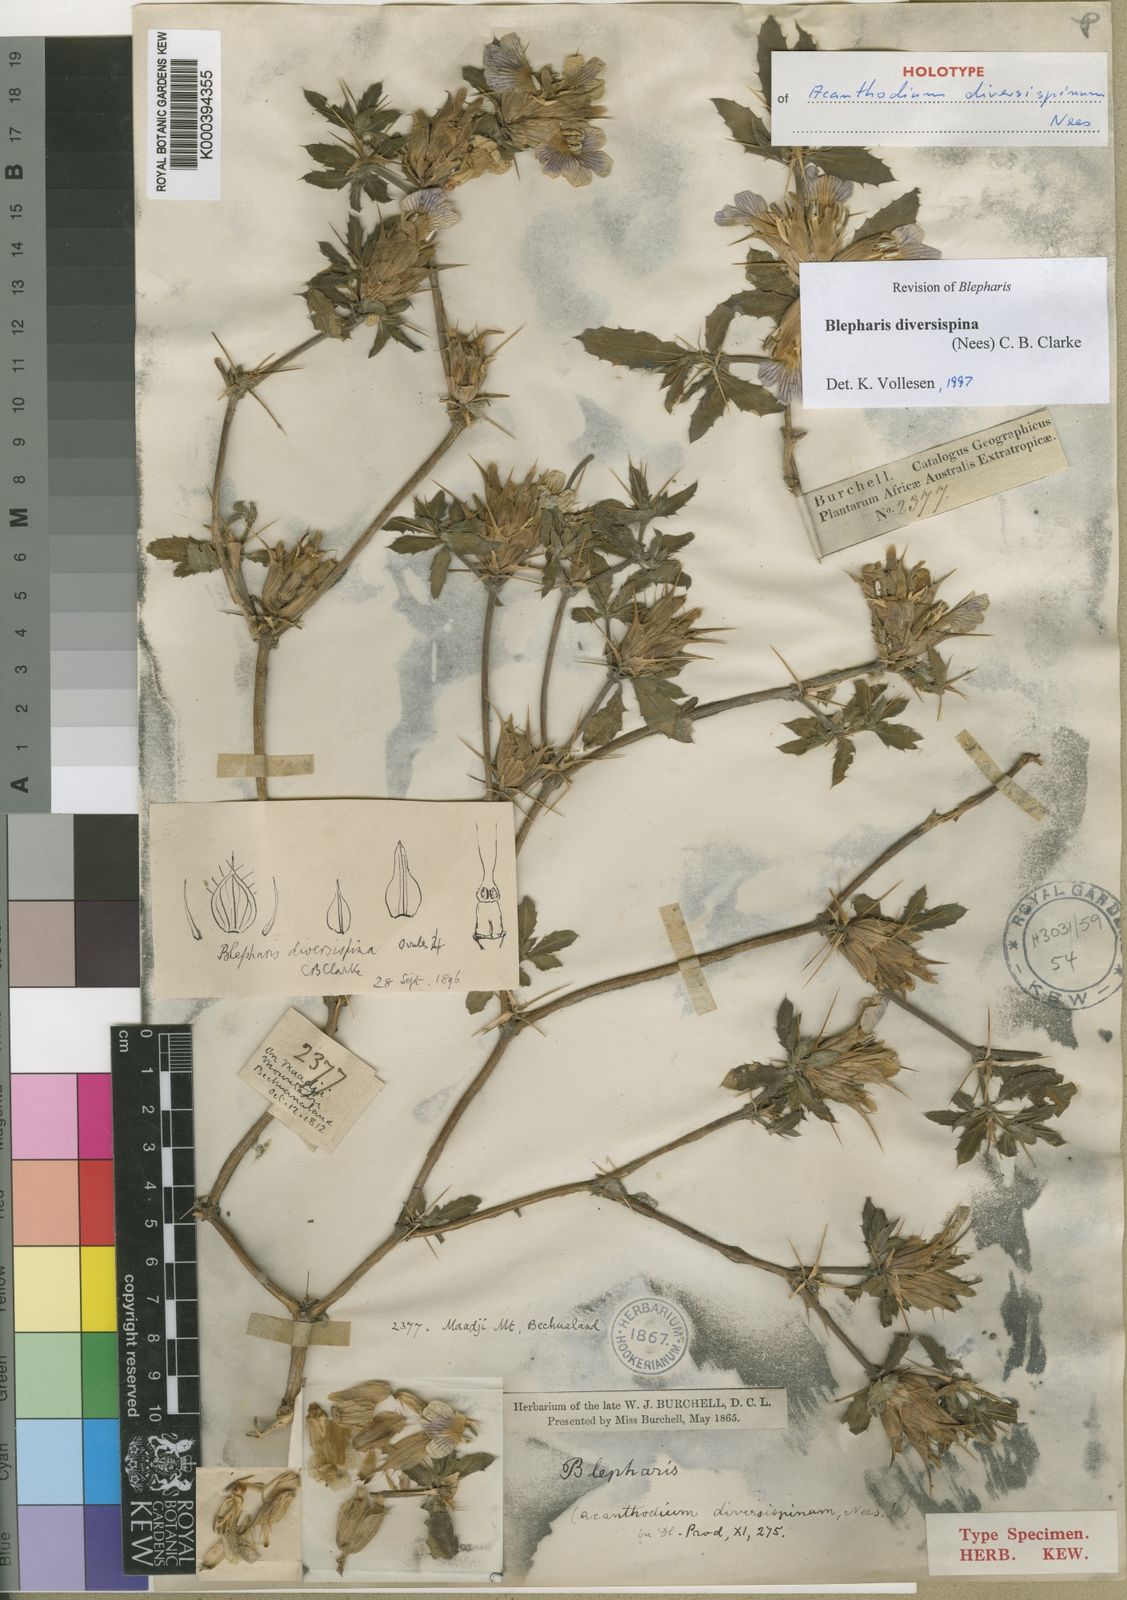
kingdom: Plantae
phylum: Tracheophyta
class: Magnoliopsida
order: Lamiales
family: Acanthaceae
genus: Blepharis
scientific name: Blepharis diversispina
